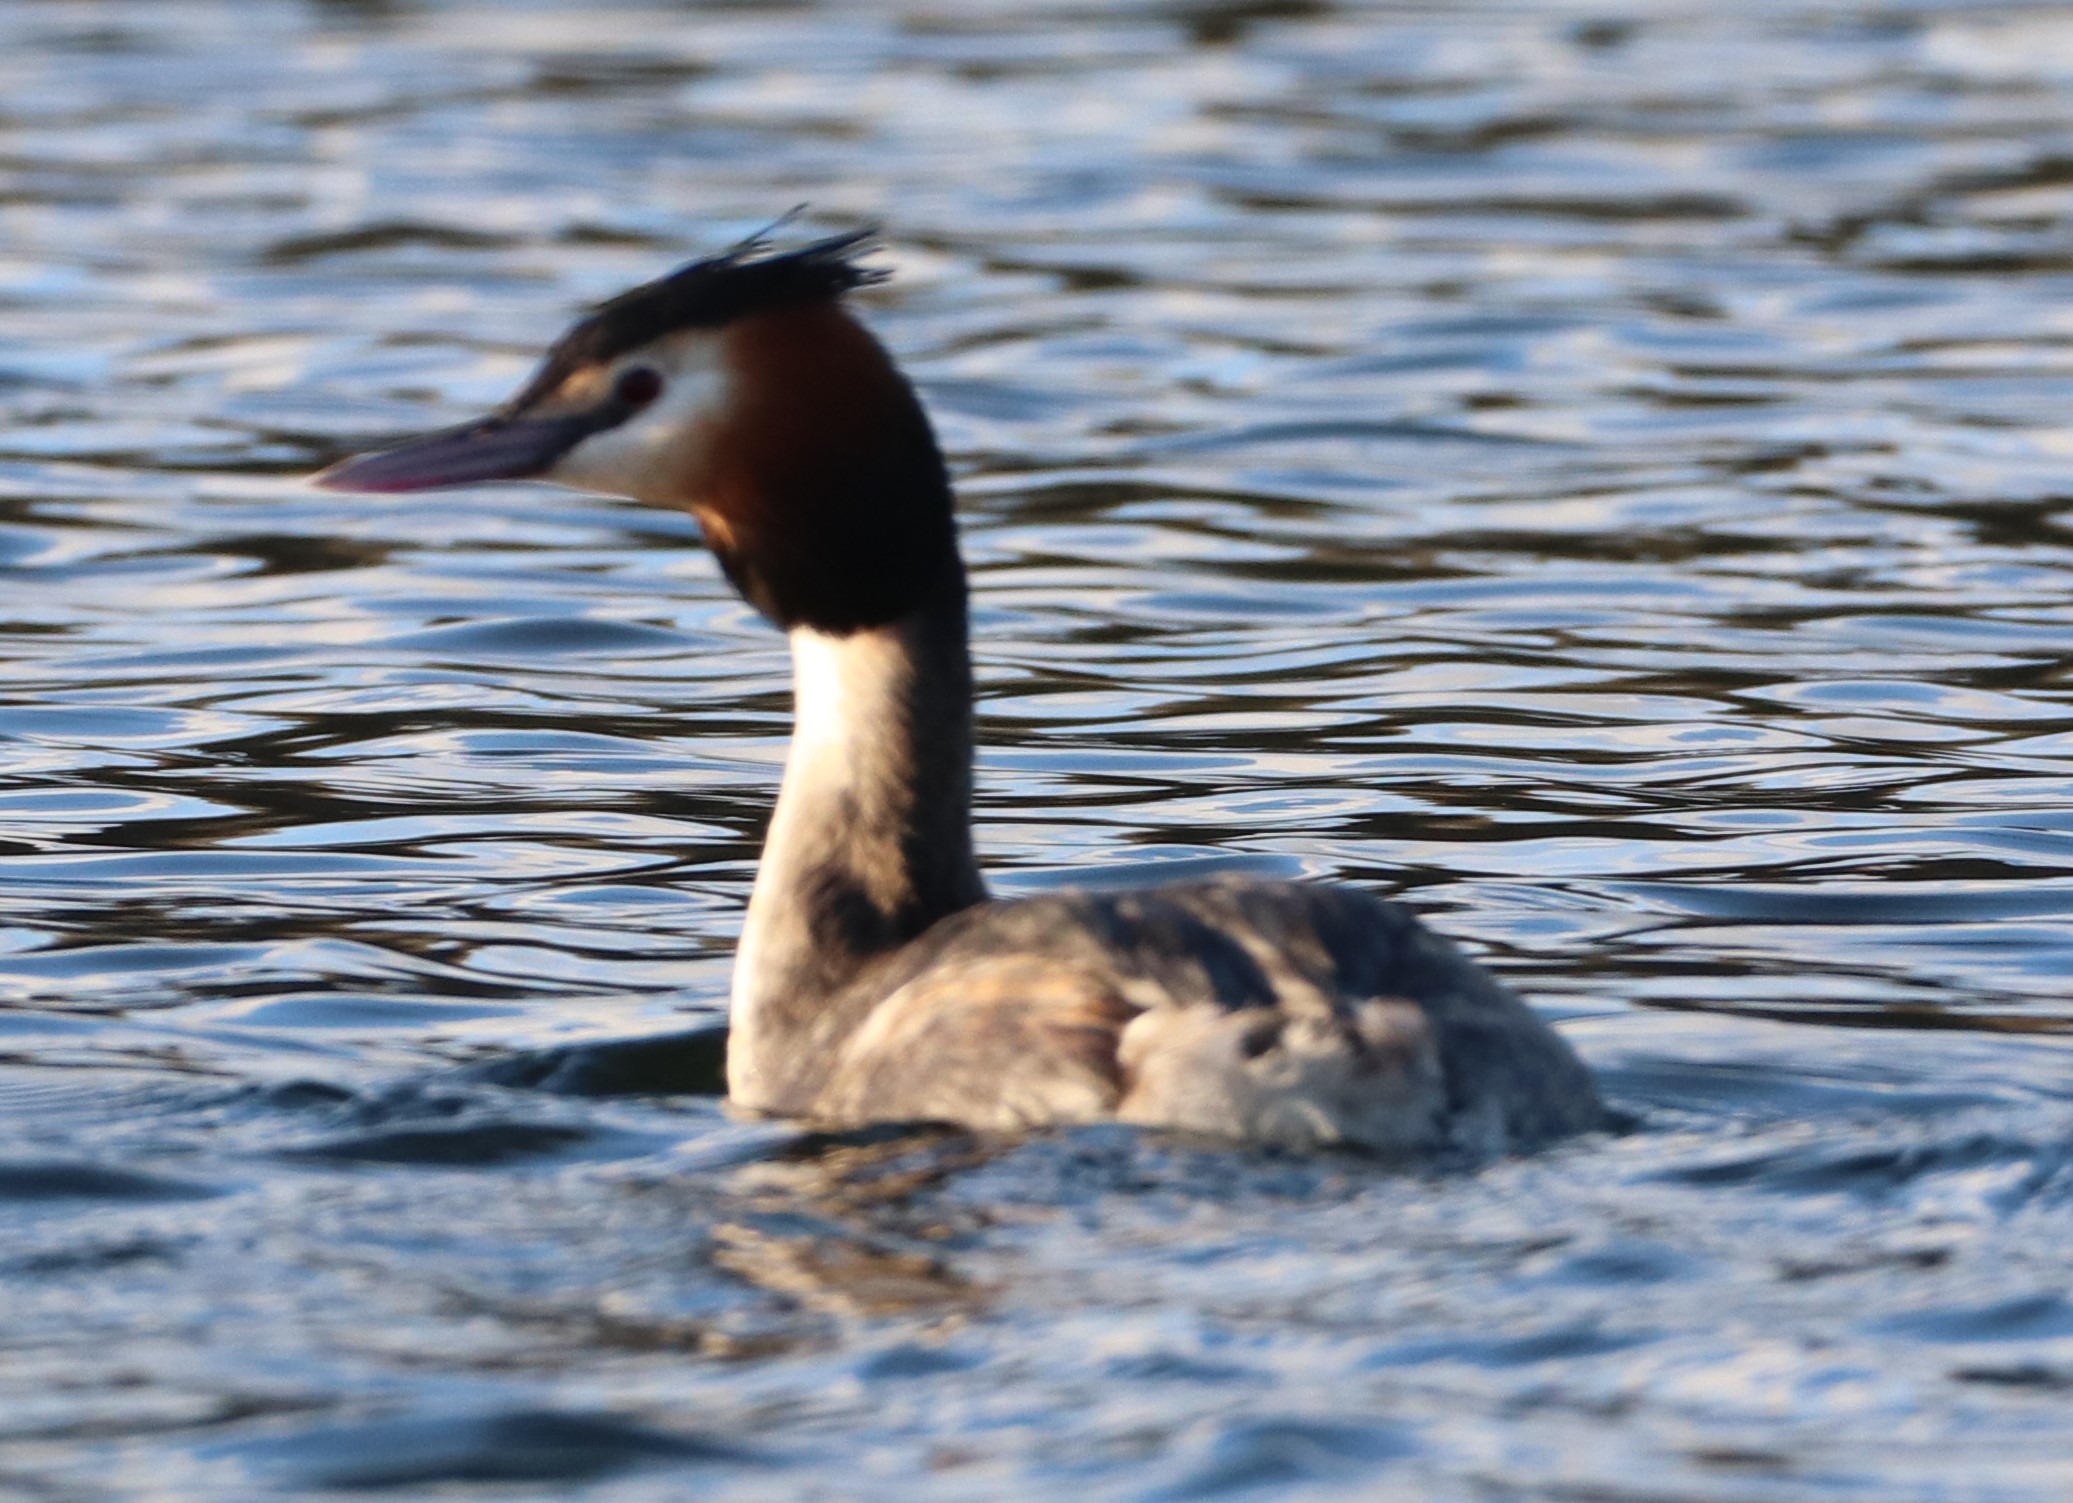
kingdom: Animalia
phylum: Chordata
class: Aves
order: Podicipediformes
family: Podicipedidae
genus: Podiceps
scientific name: Podiceps cristatus
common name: Toppet lappedykker
